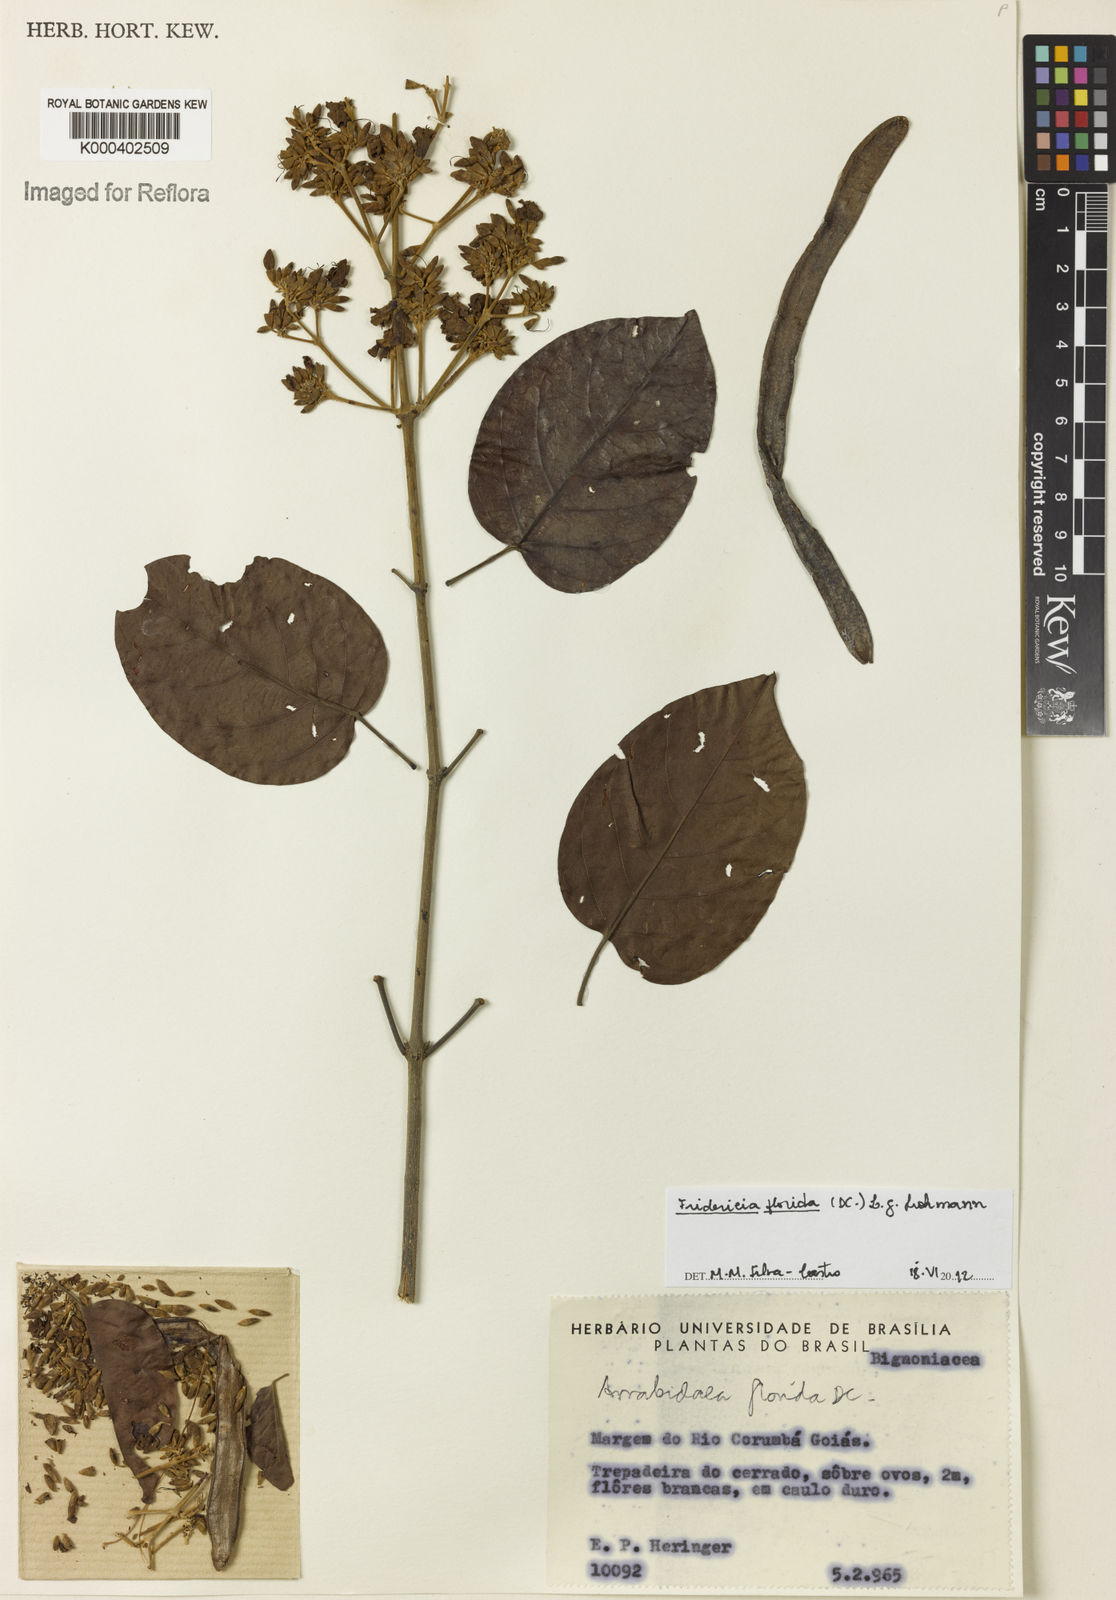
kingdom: Plantae
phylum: Tracheophyta
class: Magnoliopsida
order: Lamiales
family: Bignoniaceae
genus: Fridericia
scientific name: Fridericia florida
